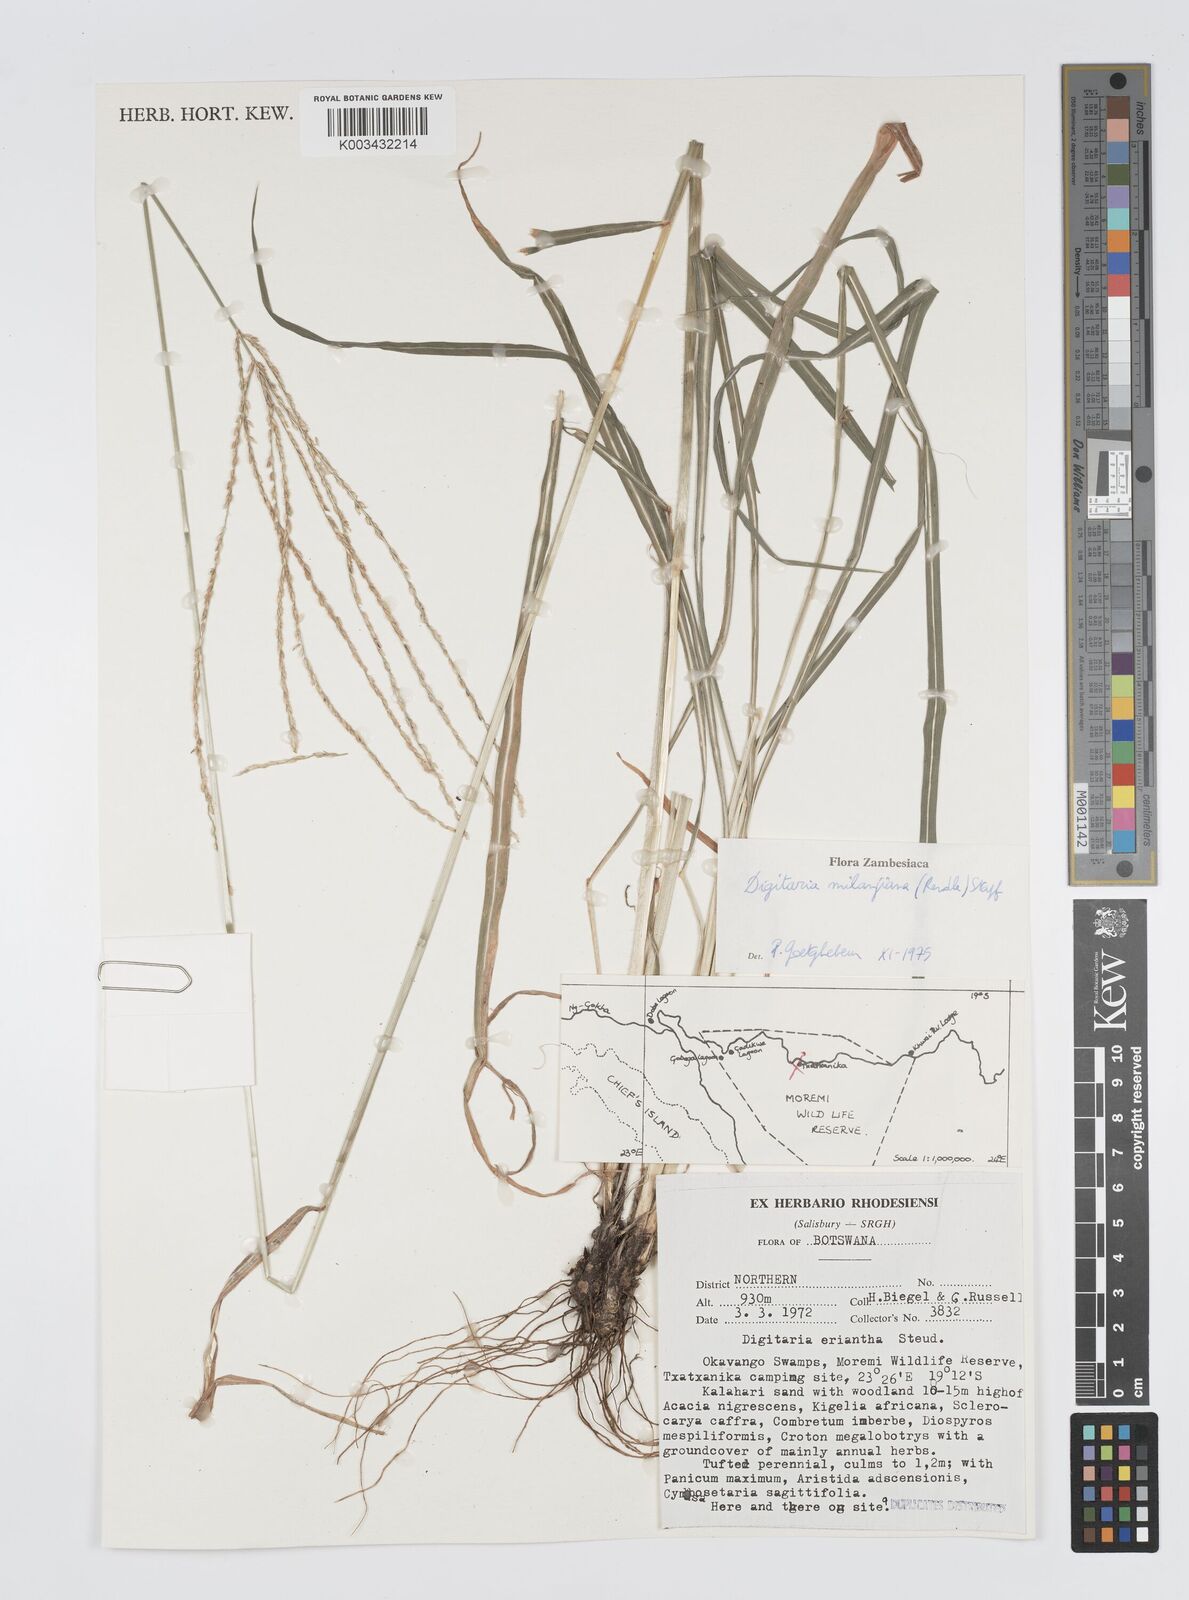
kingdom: Plantae
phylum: Tracheophyta
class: Liliopsida
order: Poales
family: Poaceae
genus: Digitaria
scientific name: Digitaria milanjiana
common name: Madagascar crabgrass
